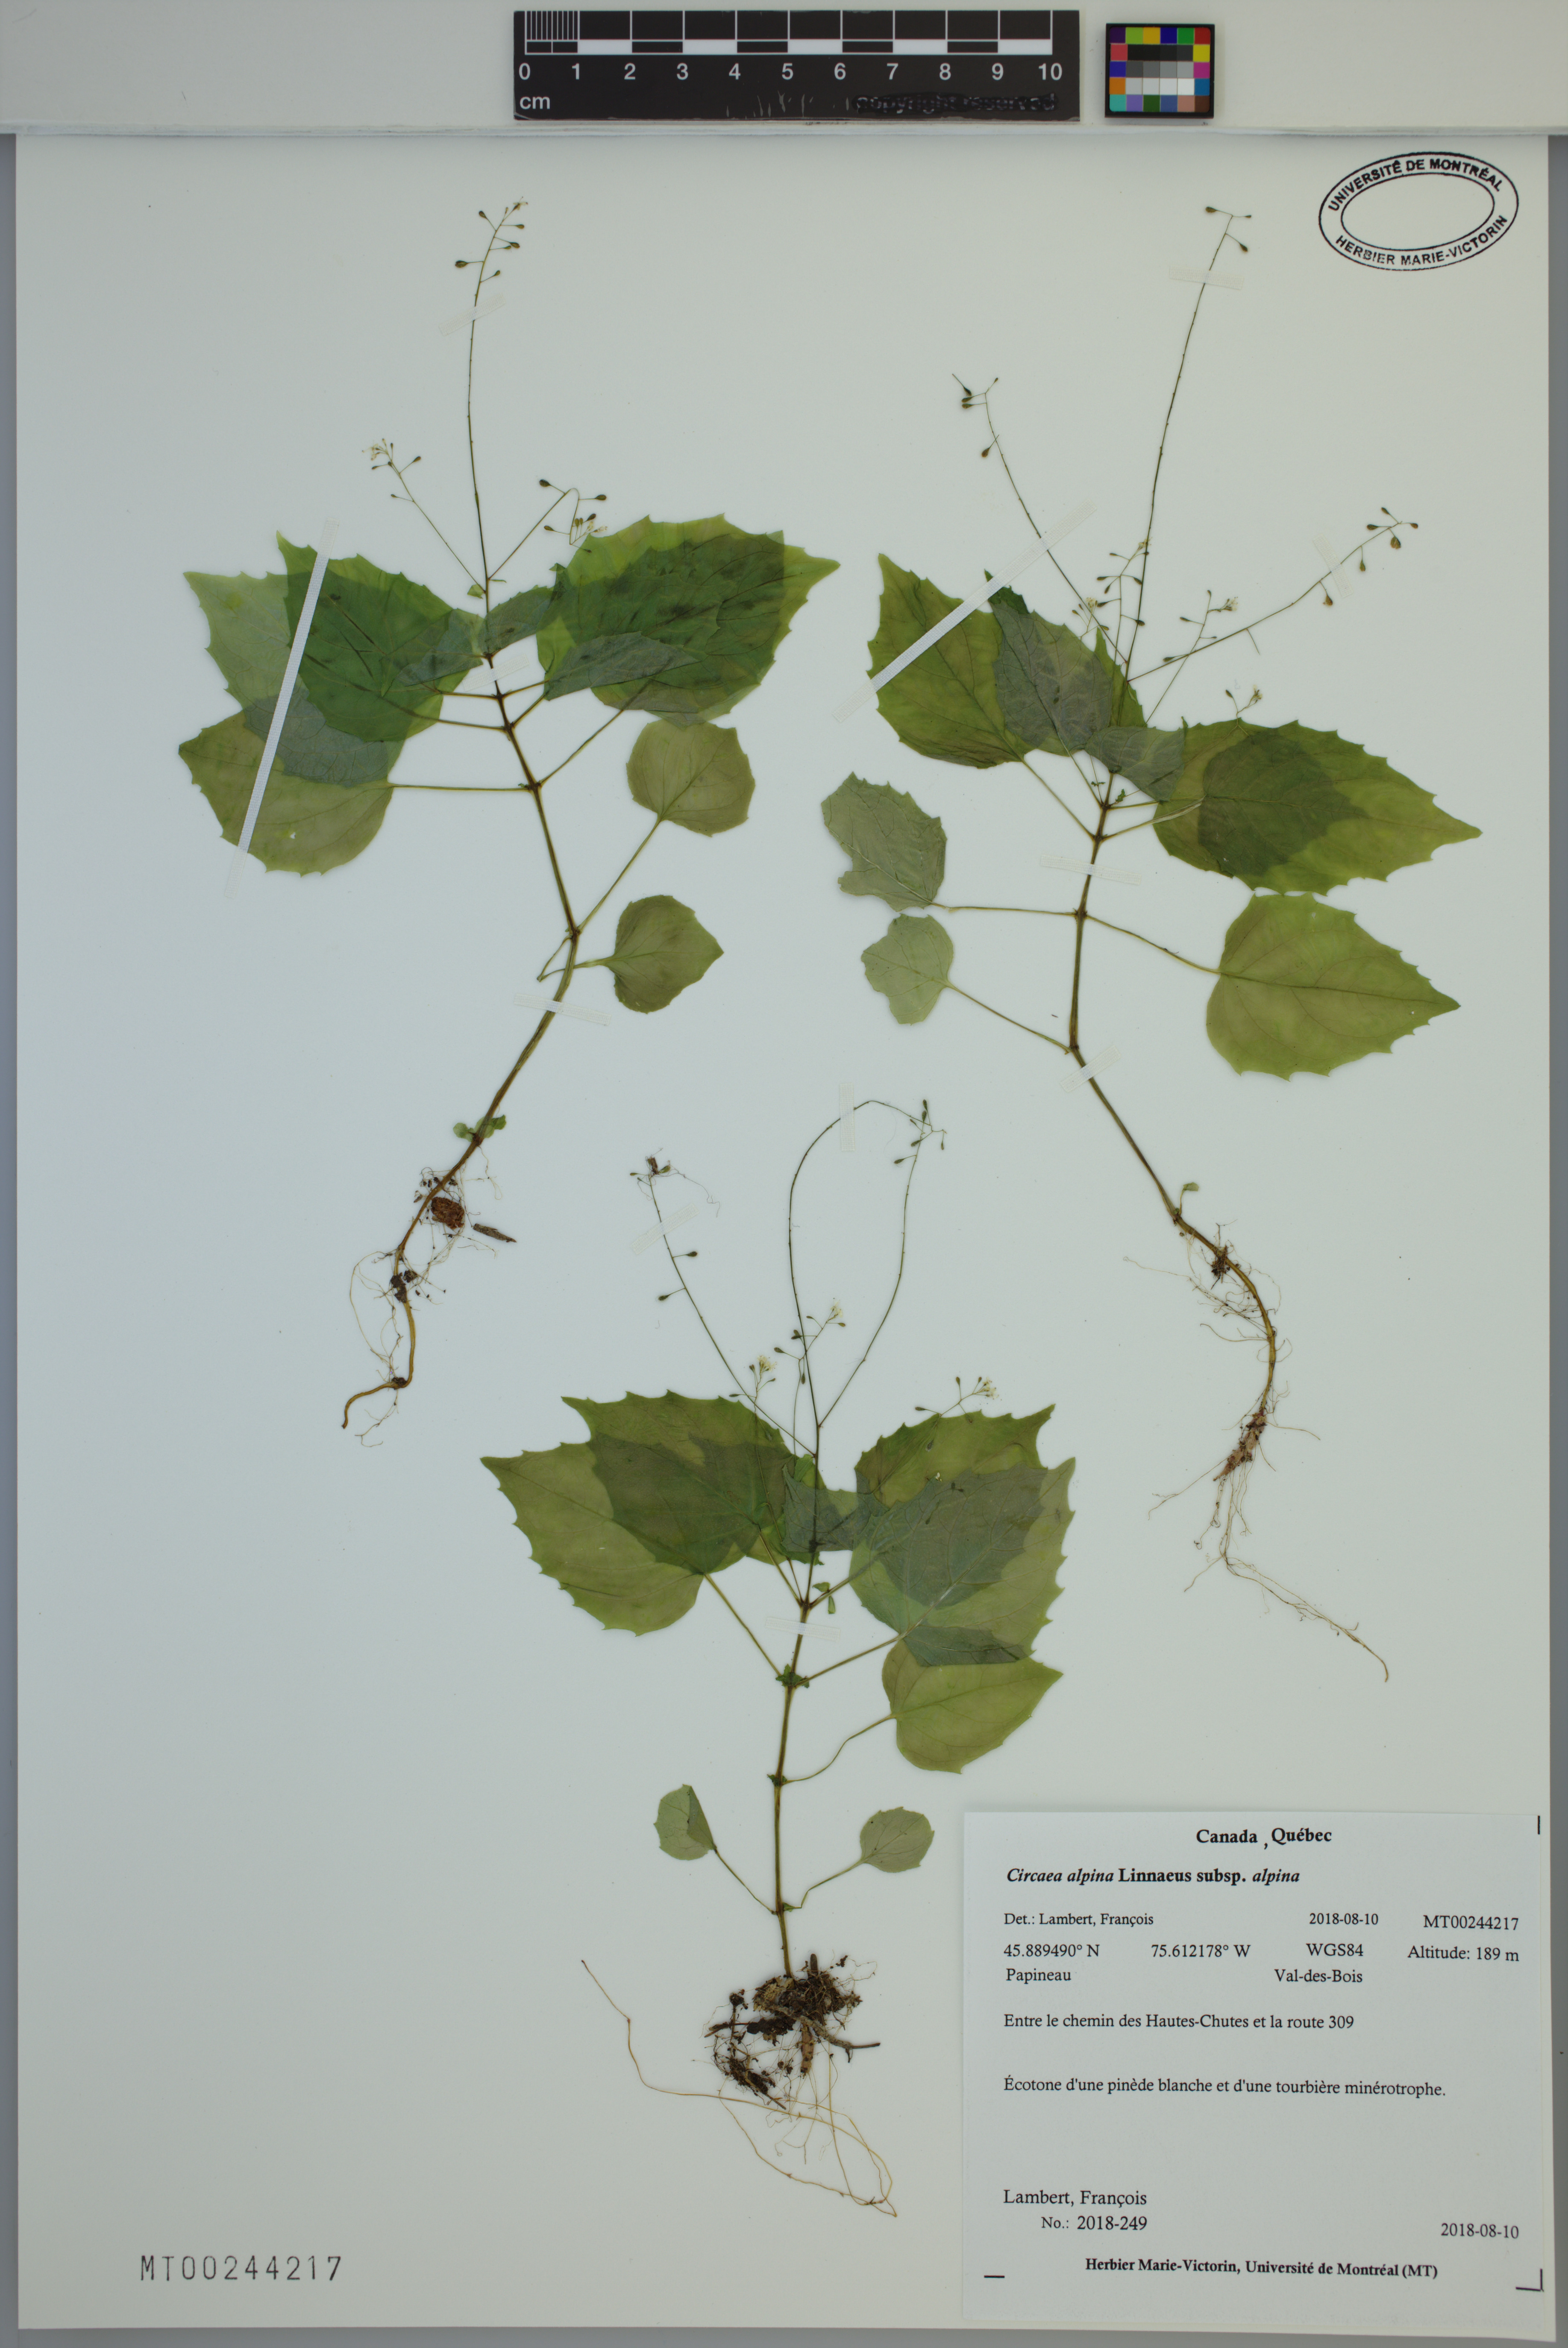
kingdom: Plantae
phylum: Tracheophyta
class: Magnoliopsida
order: Myrtales
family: Onagraceae
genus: Circaea
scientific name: Circaea alpina
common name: Alpine enchanter's-nightshade
